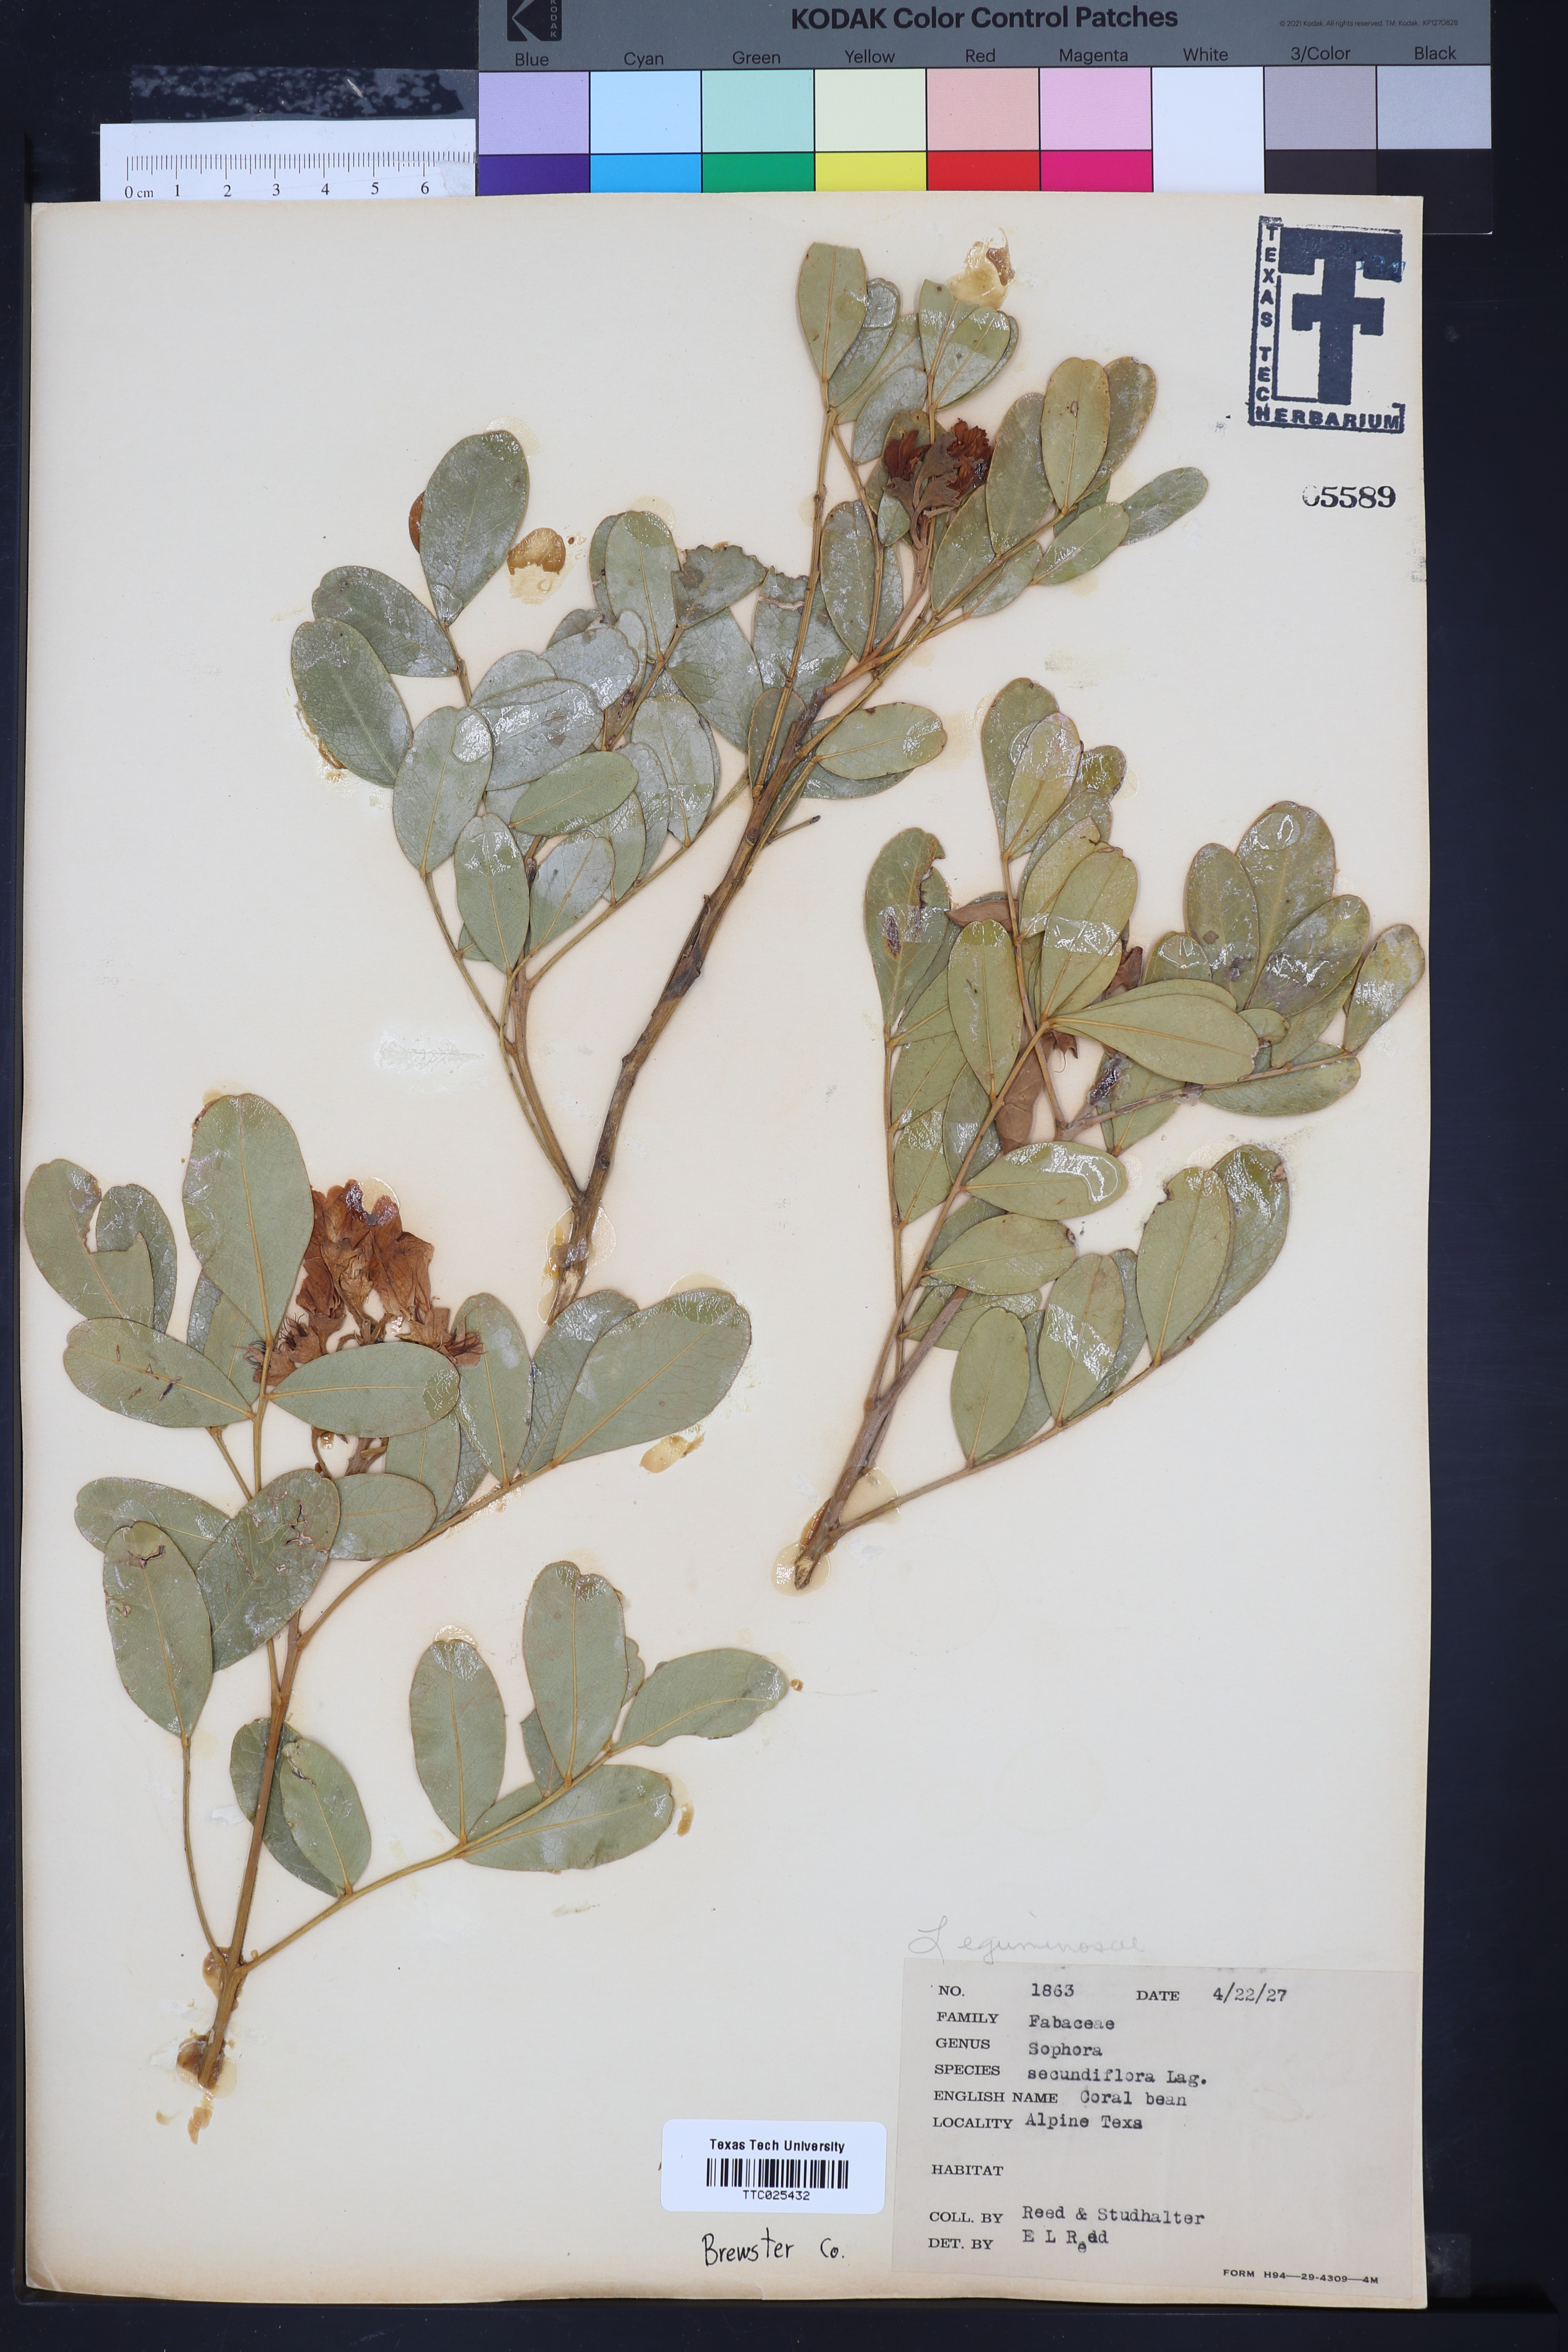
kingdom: Plantae
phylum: Tracheophyta
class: Magnoliopsida
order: Fabales
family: Fabaceae
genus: Dermatophyllum
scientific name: Dermatophyllum secundiflorum
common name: Texas-mountain-laurel
